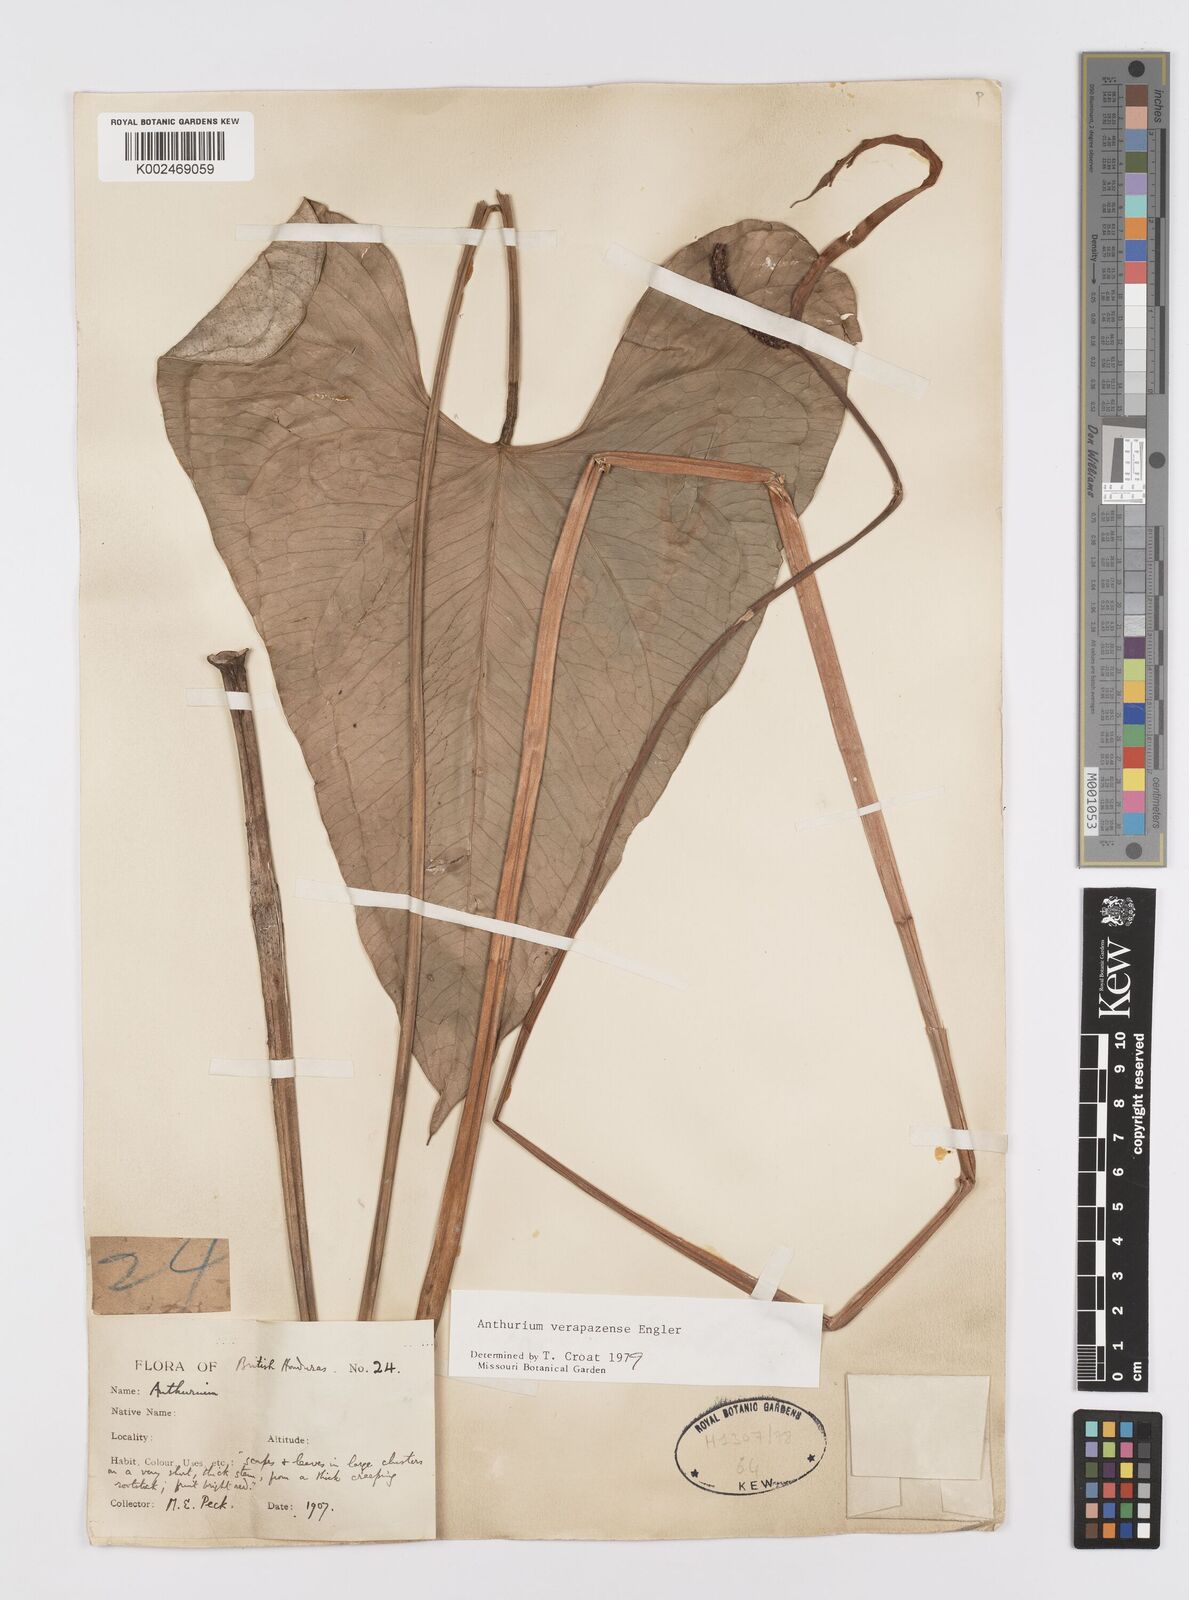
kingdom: Plantae
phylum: Tracheophyta
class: Liliopsida
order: Alismatales
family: Araceae
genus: Anthurium
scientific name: Anthurium verapazense
